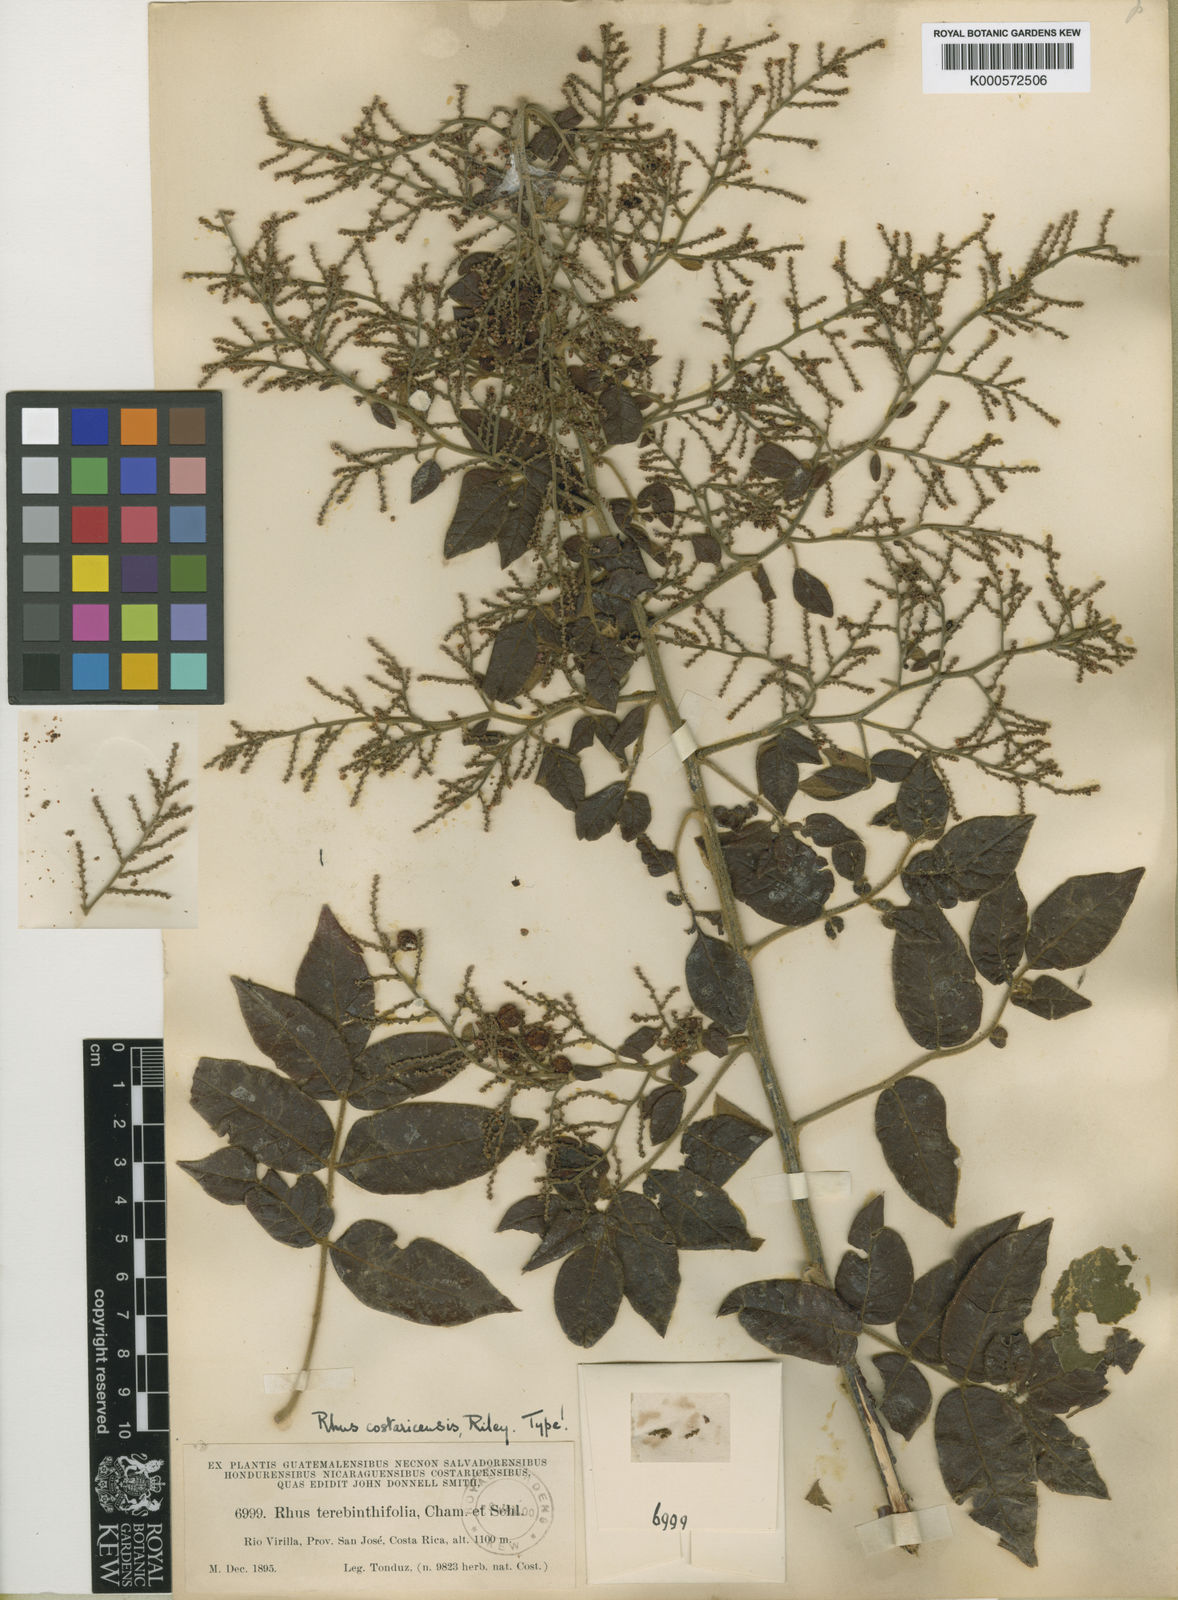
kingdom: Plantae
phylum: Tracheophyta
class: Magnoliopsida
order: Sapindales
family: Anacardiaceae
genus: Rhus
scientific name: Rhus terebinthifolia
